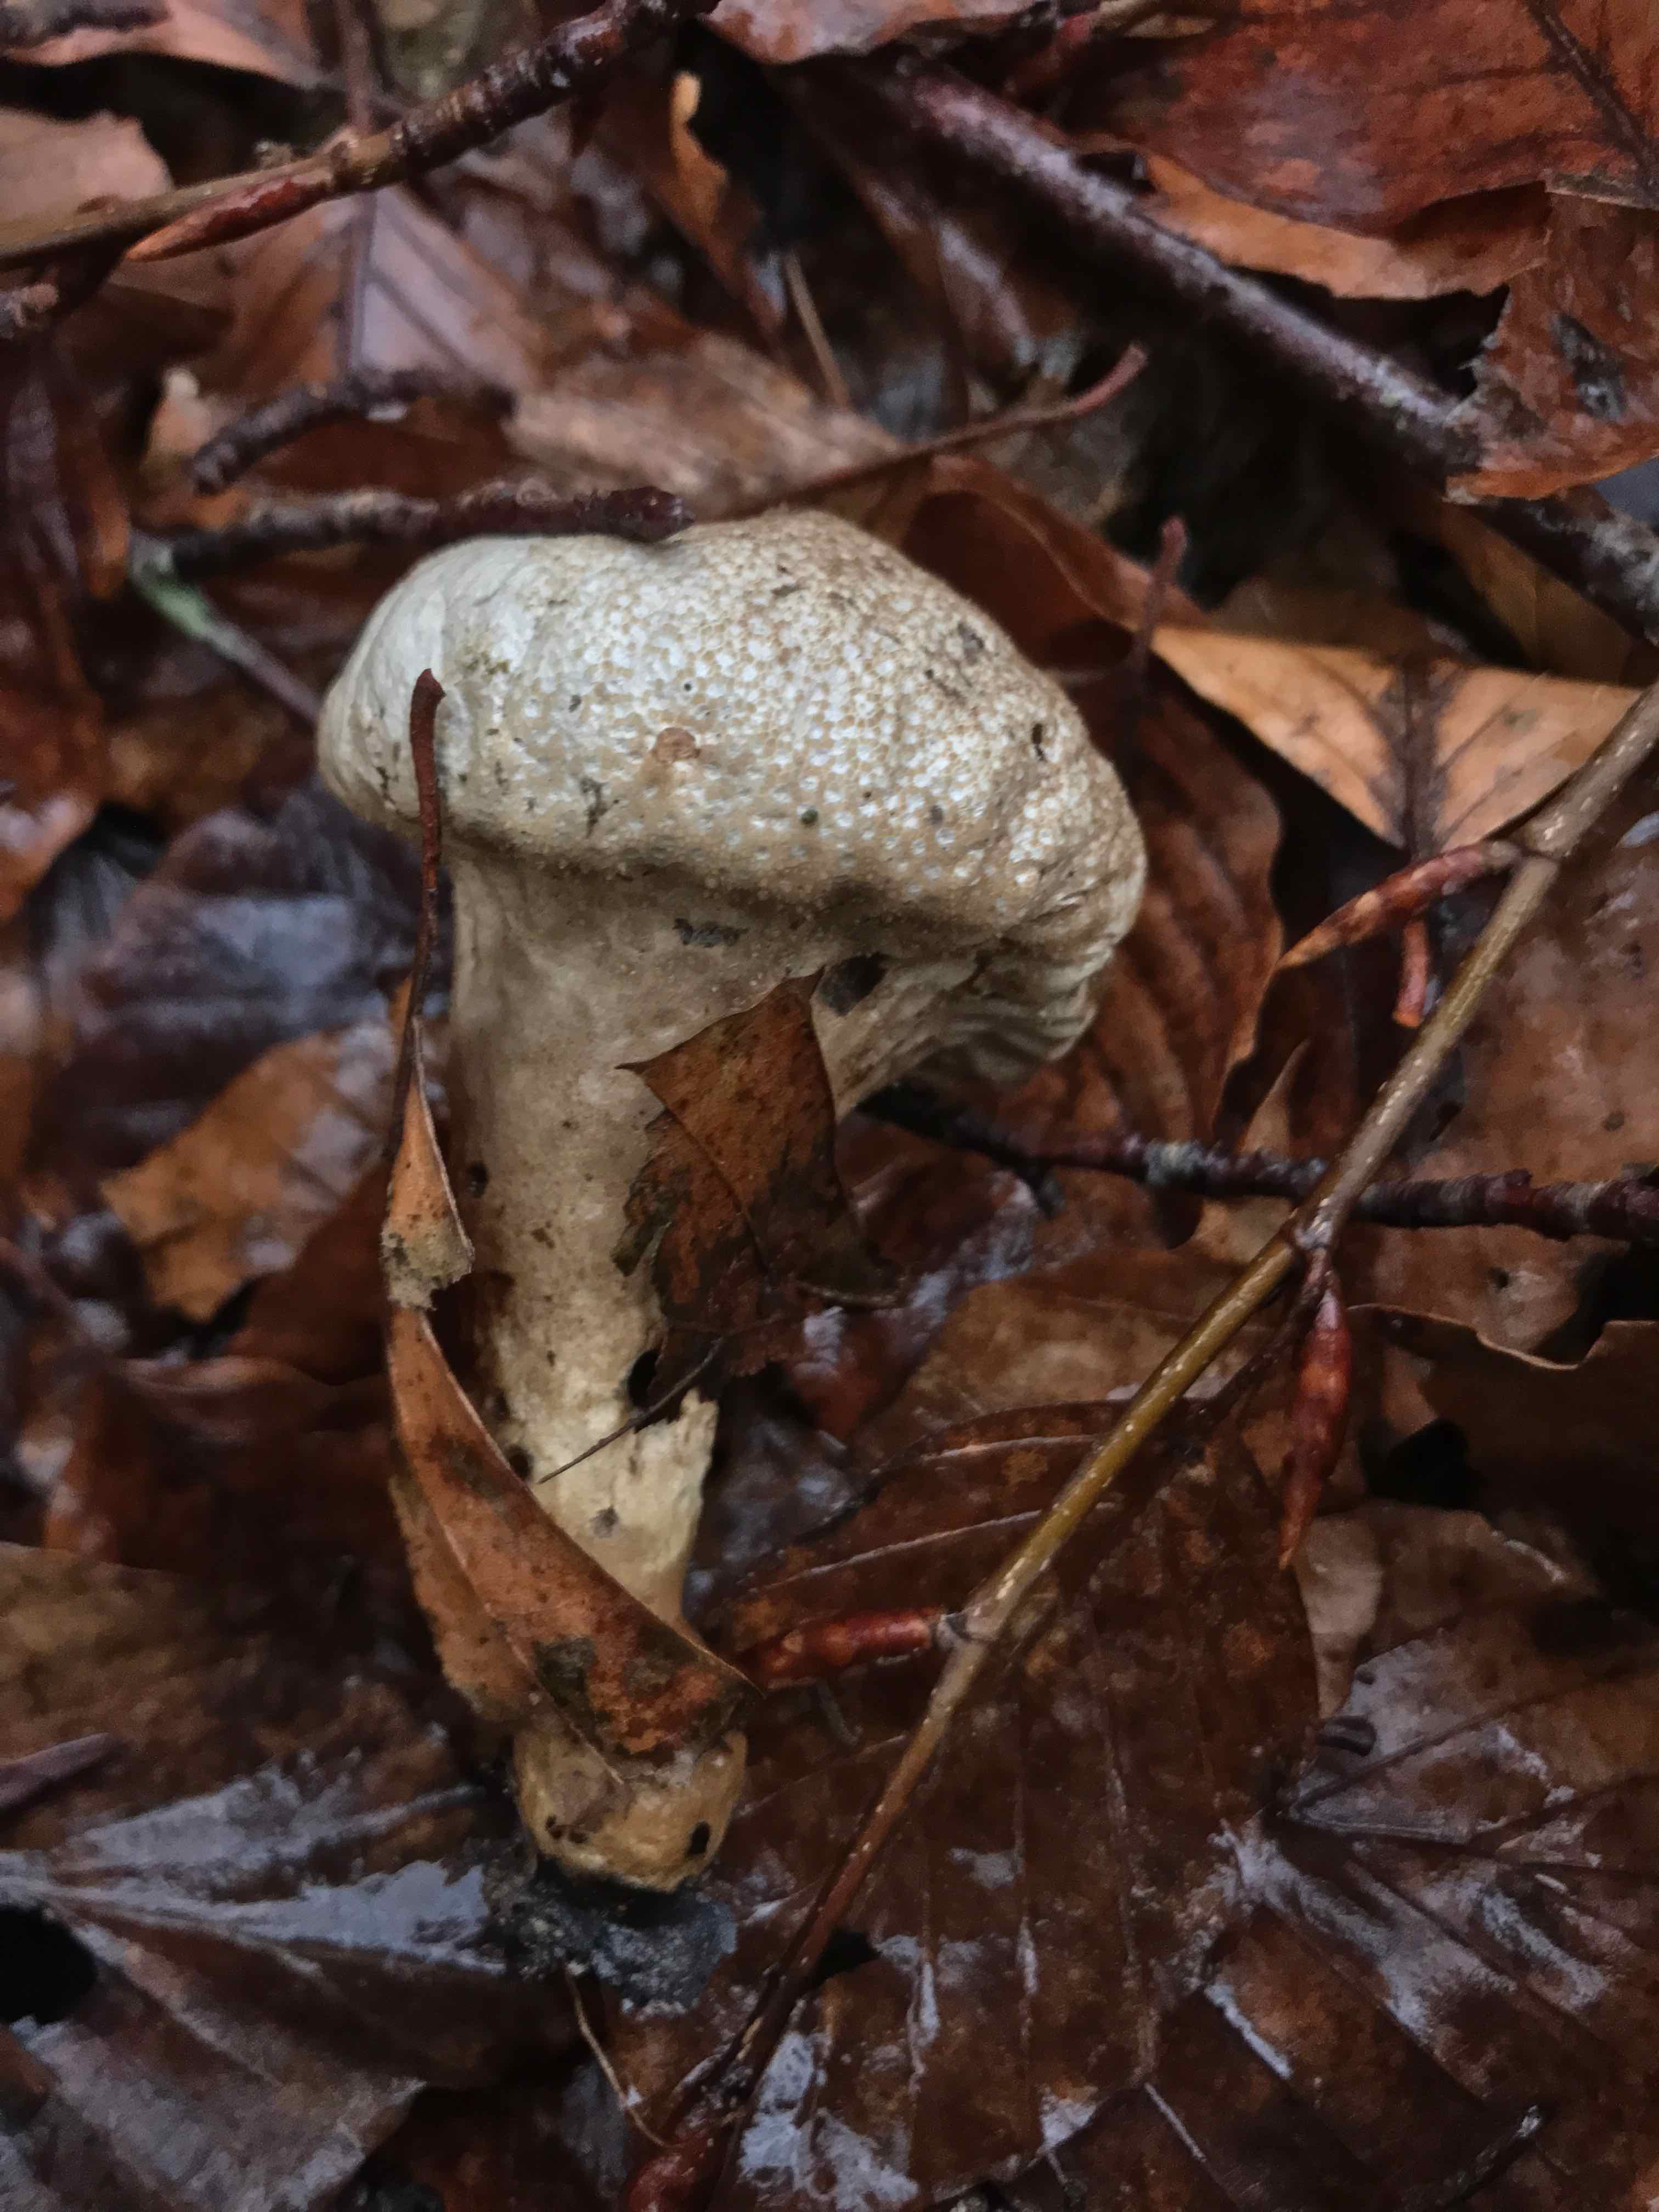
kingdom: Fungi
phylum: Basidiomycota
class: Agaricomycetes
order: Agaricales
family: Lycoperdaceae
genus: Lycoperdon
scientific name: Lycoperdon excipuliforme
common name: højstokket støvbold
